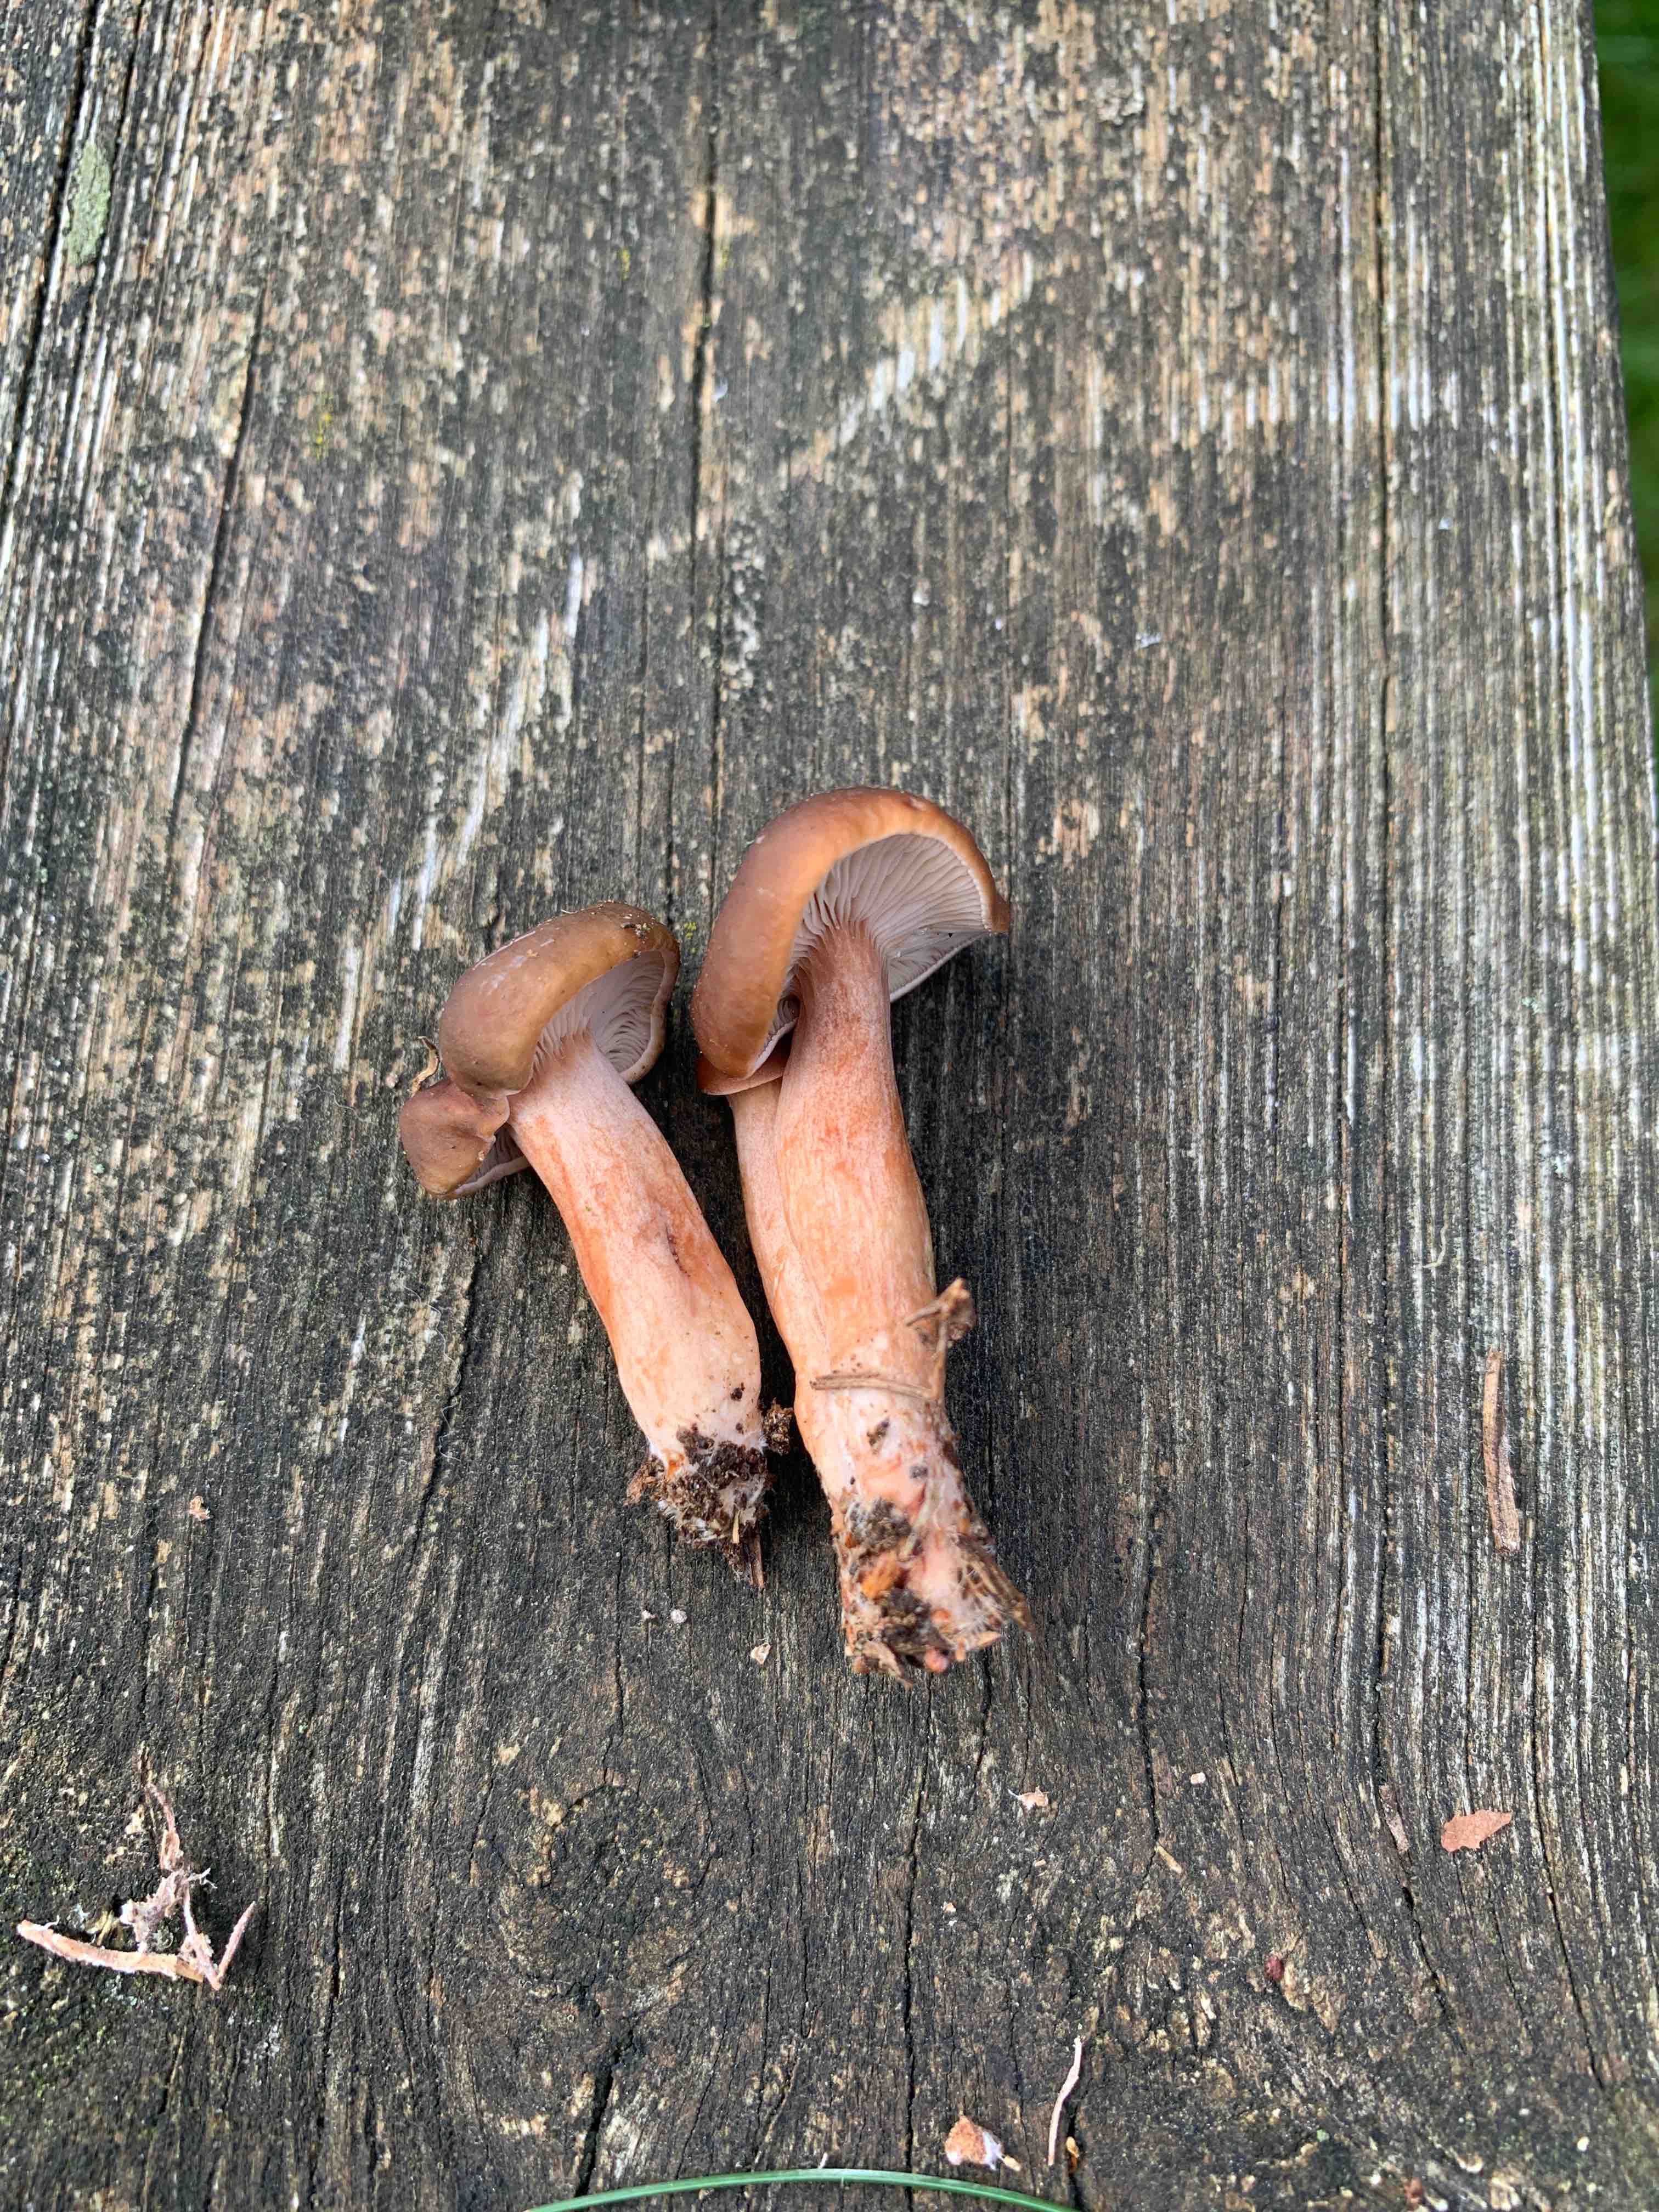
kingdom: Fungi
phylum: Basidiomycota
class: Agaricomycetes
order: Russulales
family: Russulaceae
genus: Lactarius
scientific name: Lactarius
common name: mælkehat
